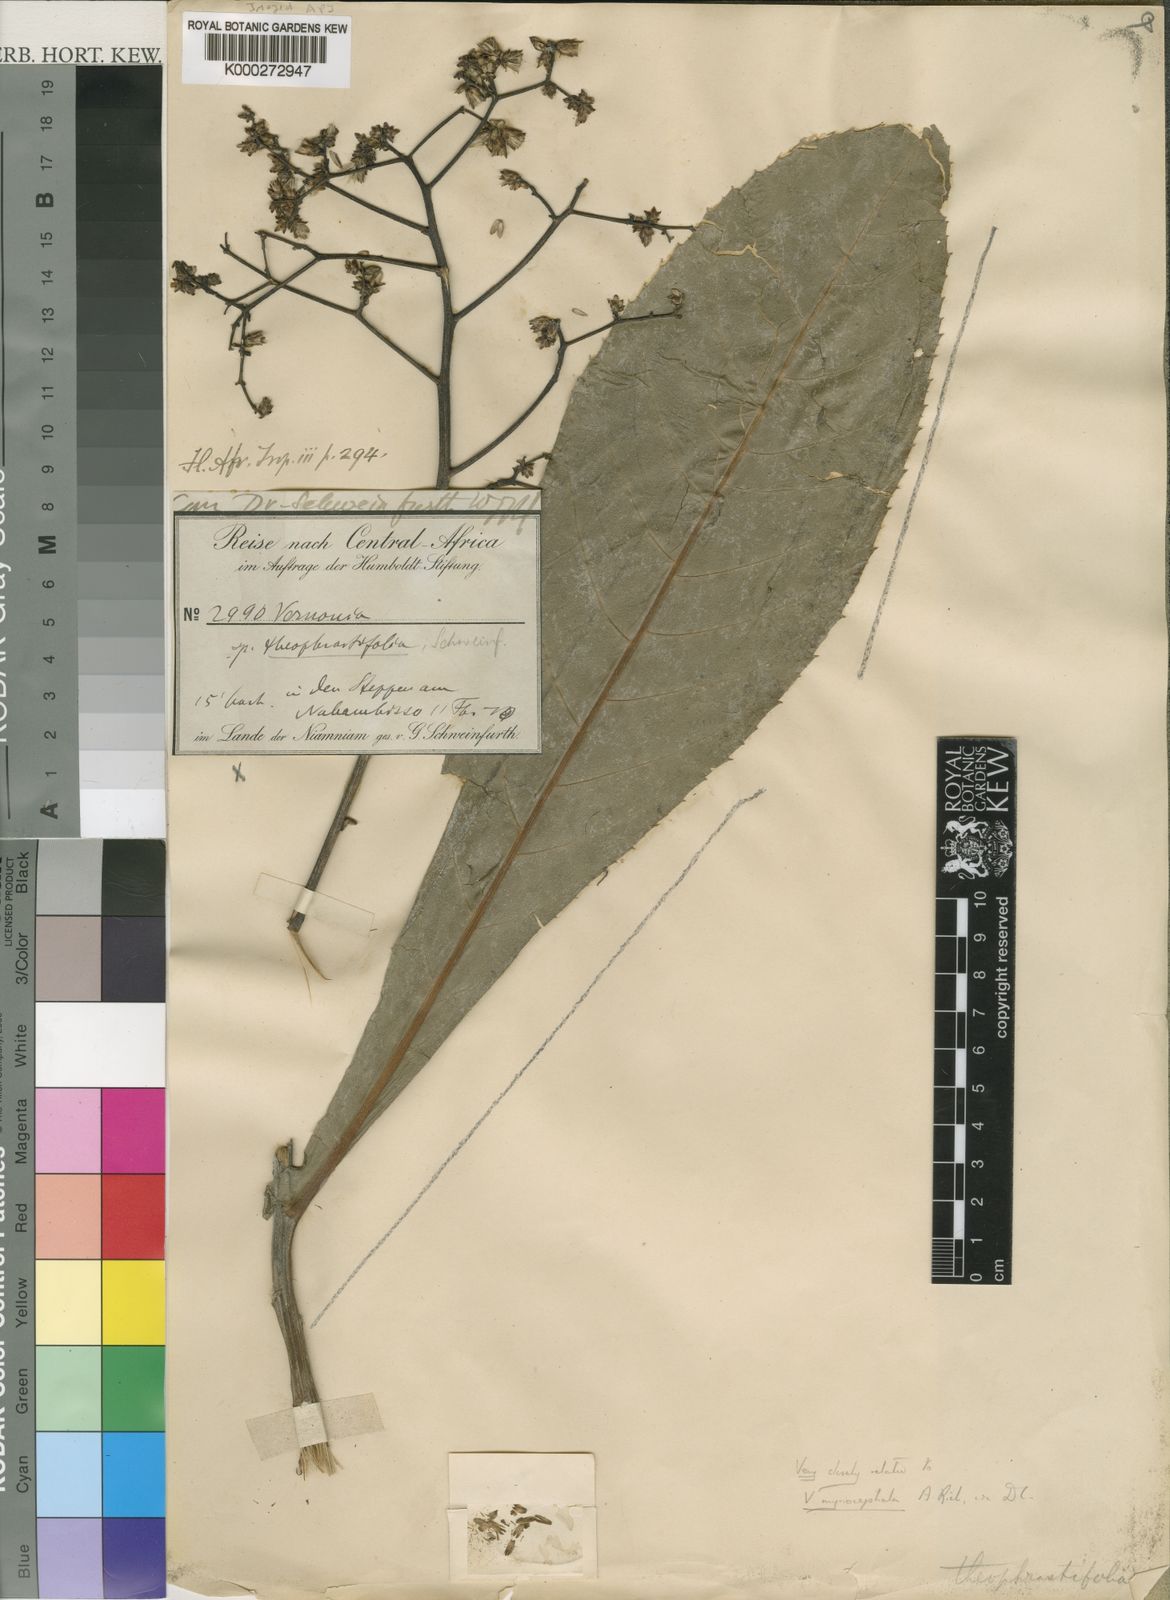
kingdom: Plantae
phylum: Tracheophyta
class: Magnoliopsida
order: Asterales
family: Asteraceae
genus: Gymnanthemum
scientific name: Gymnanthemum theophrastifolium
